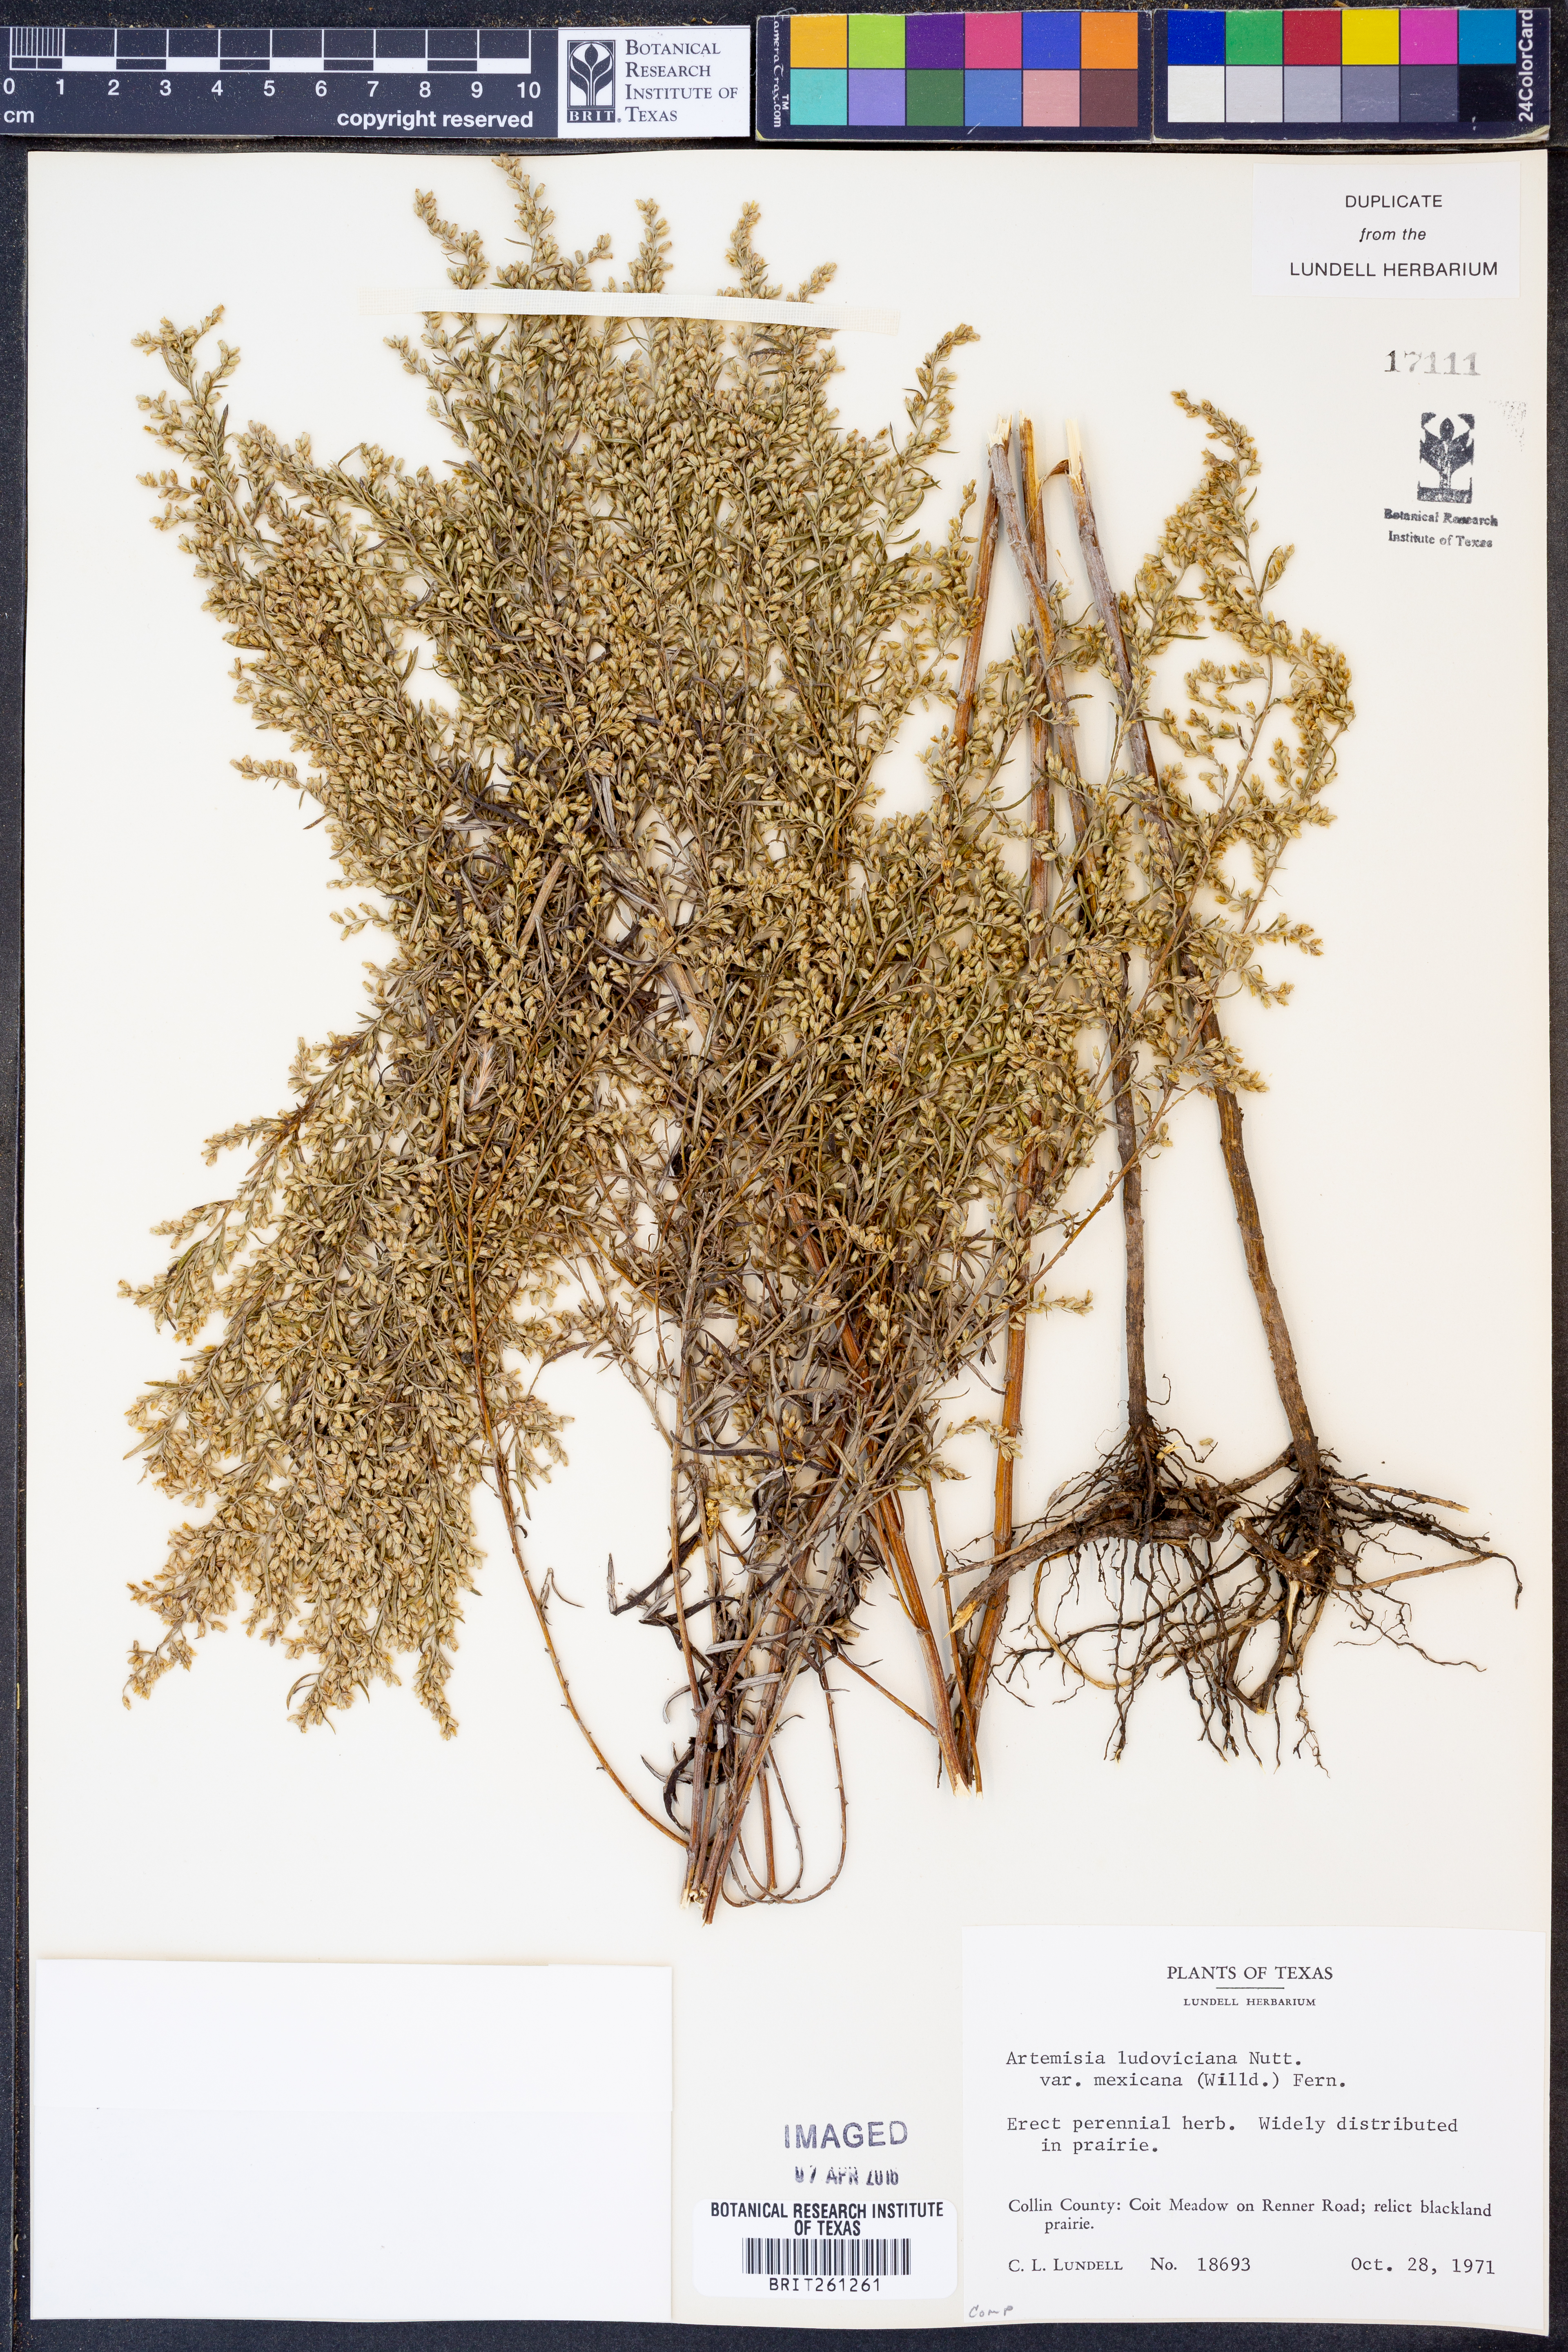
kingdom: Plantae
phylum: Tracheophyta
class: Magnoliopsida
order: Asterales
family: Asteraceae
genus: Artemisia
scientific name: Artemisia ludoviciana
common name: Western mugwort
